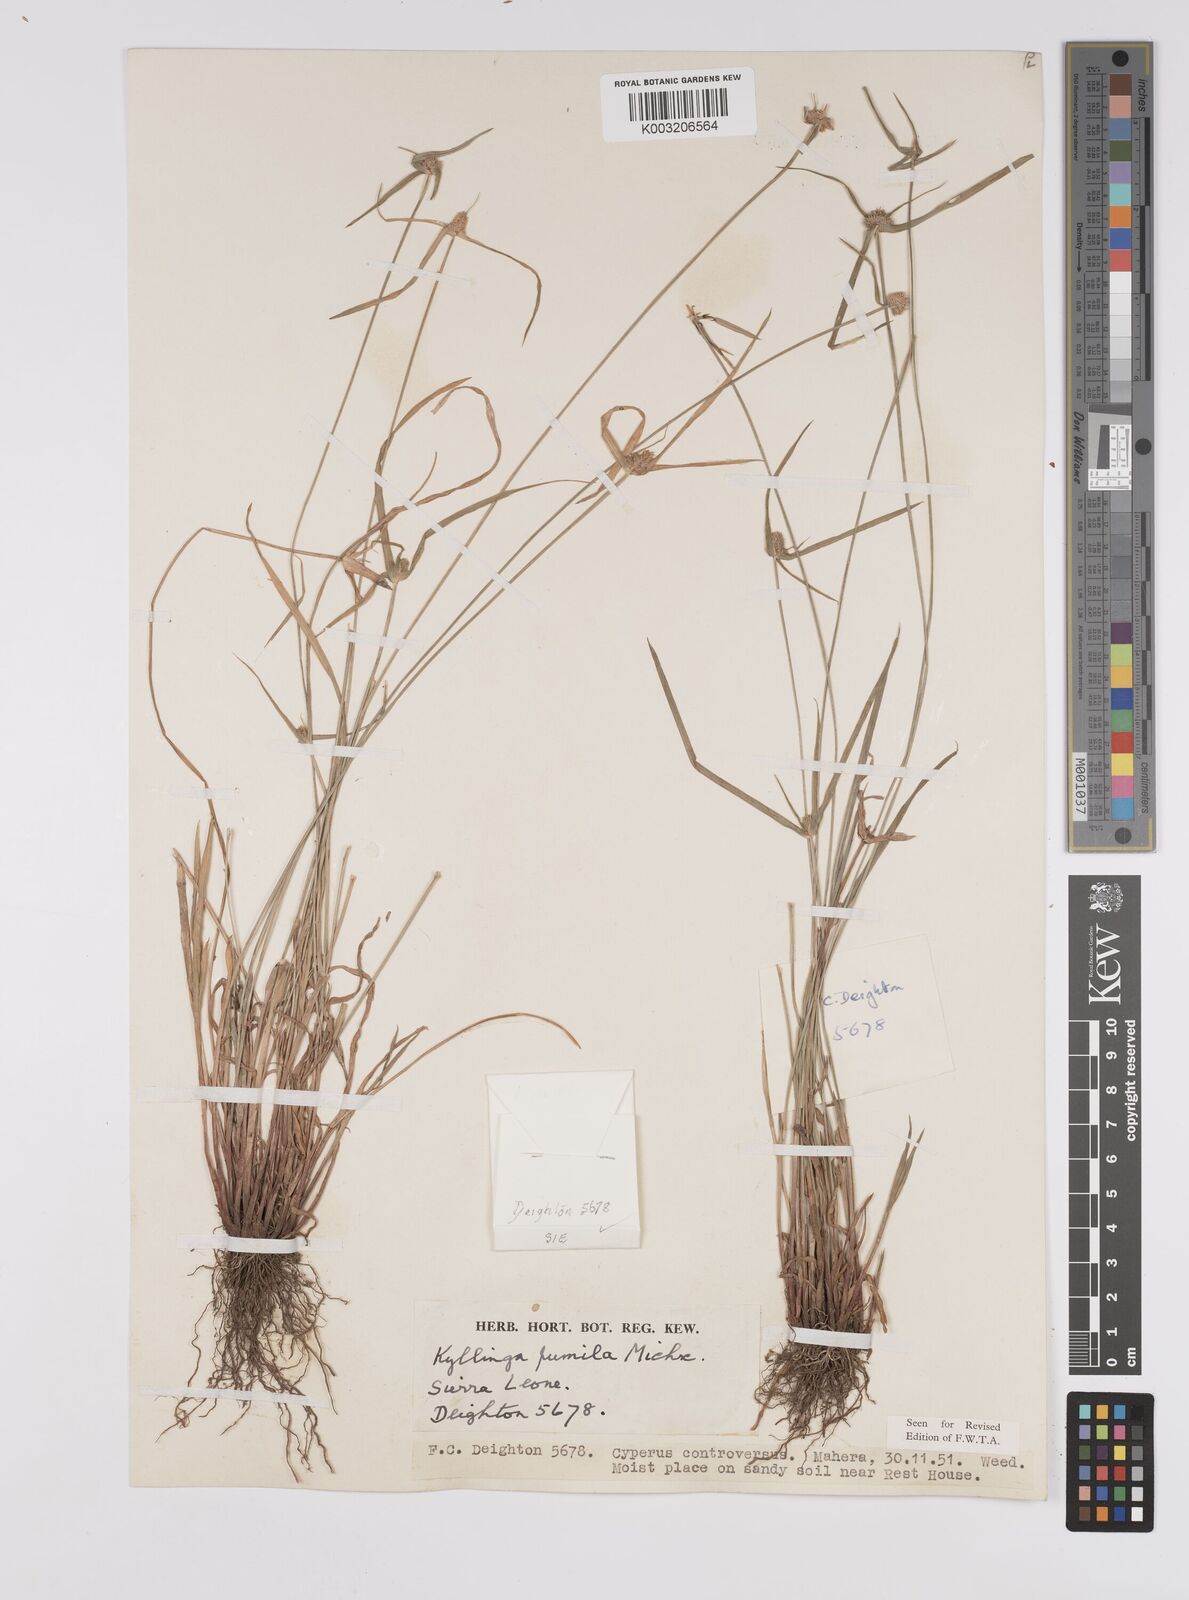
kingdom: Plantae
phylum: Tracheophyta
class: Liliopsida
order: Poales
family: Cyperaceae
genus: Cyperus
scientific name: Cyperus
